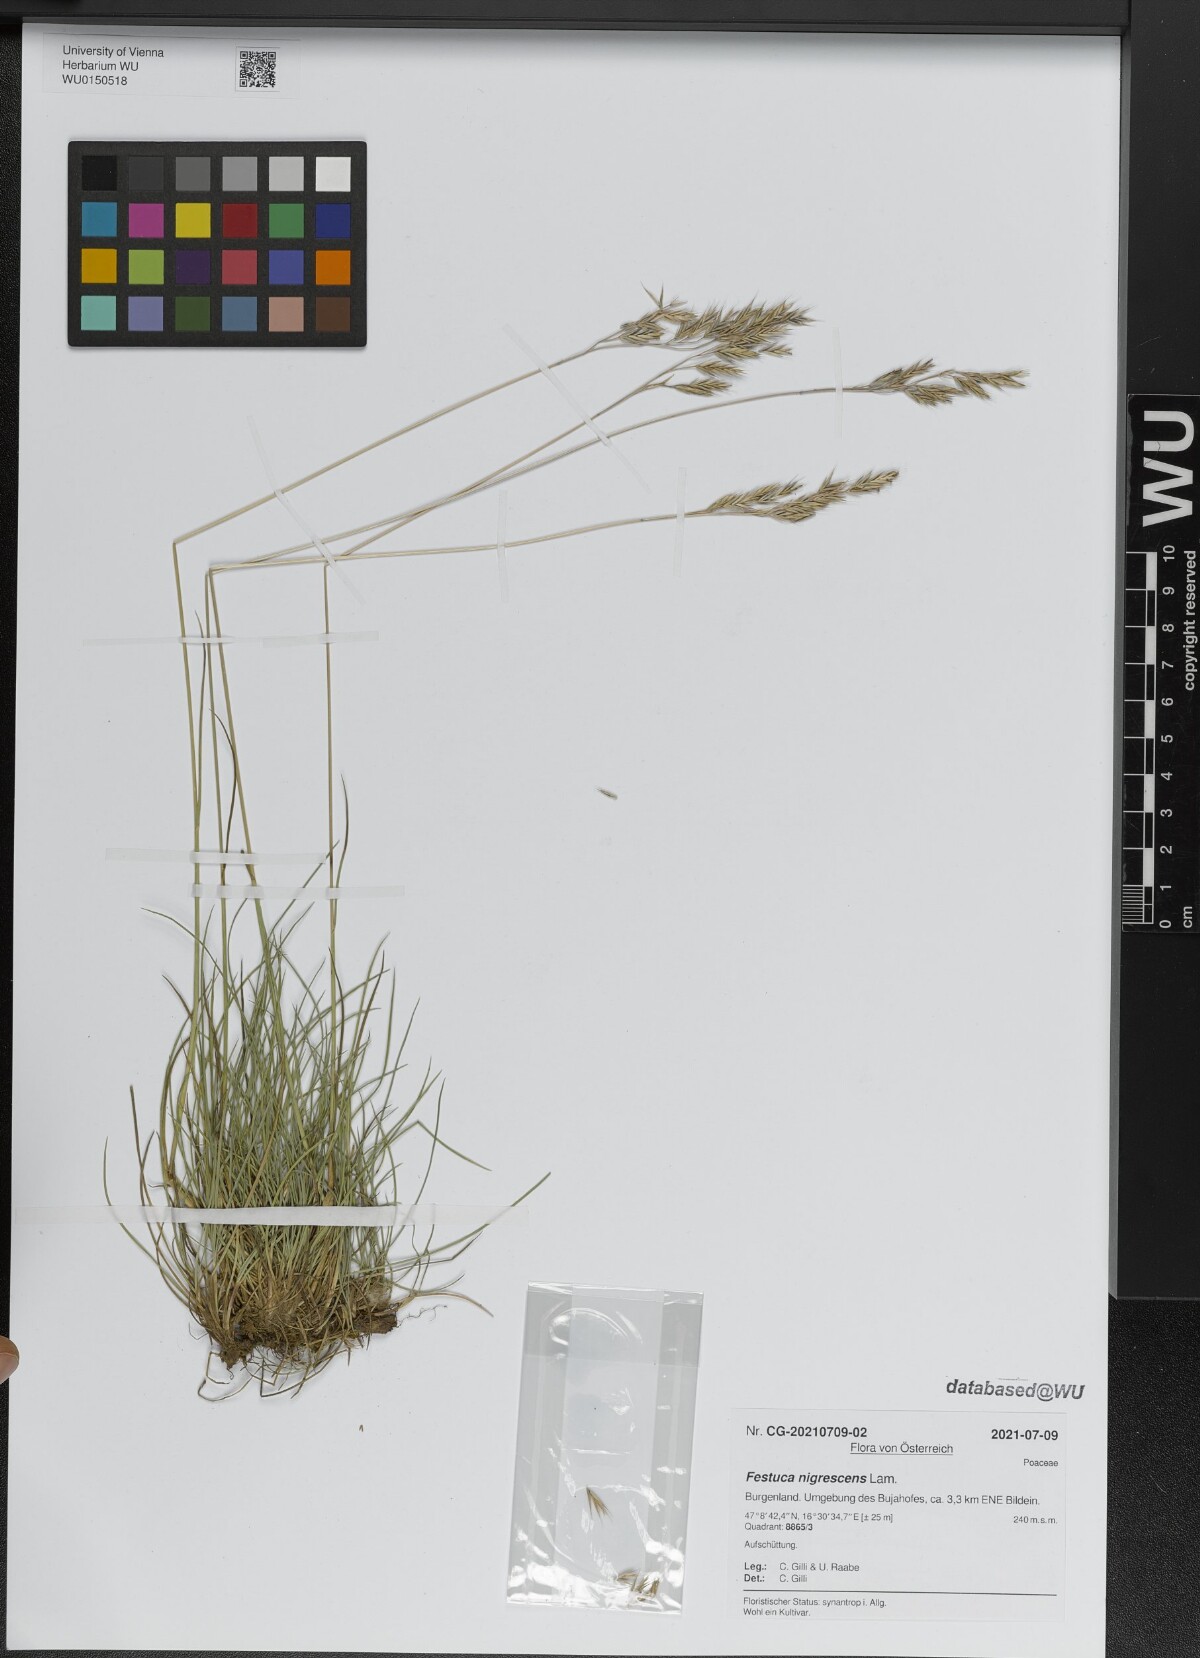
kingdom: Plantae
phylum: Tracheophyta
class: Liliopsida
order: Poales
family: Poaceae
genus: Festuca
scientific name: Festuca nigrescens
